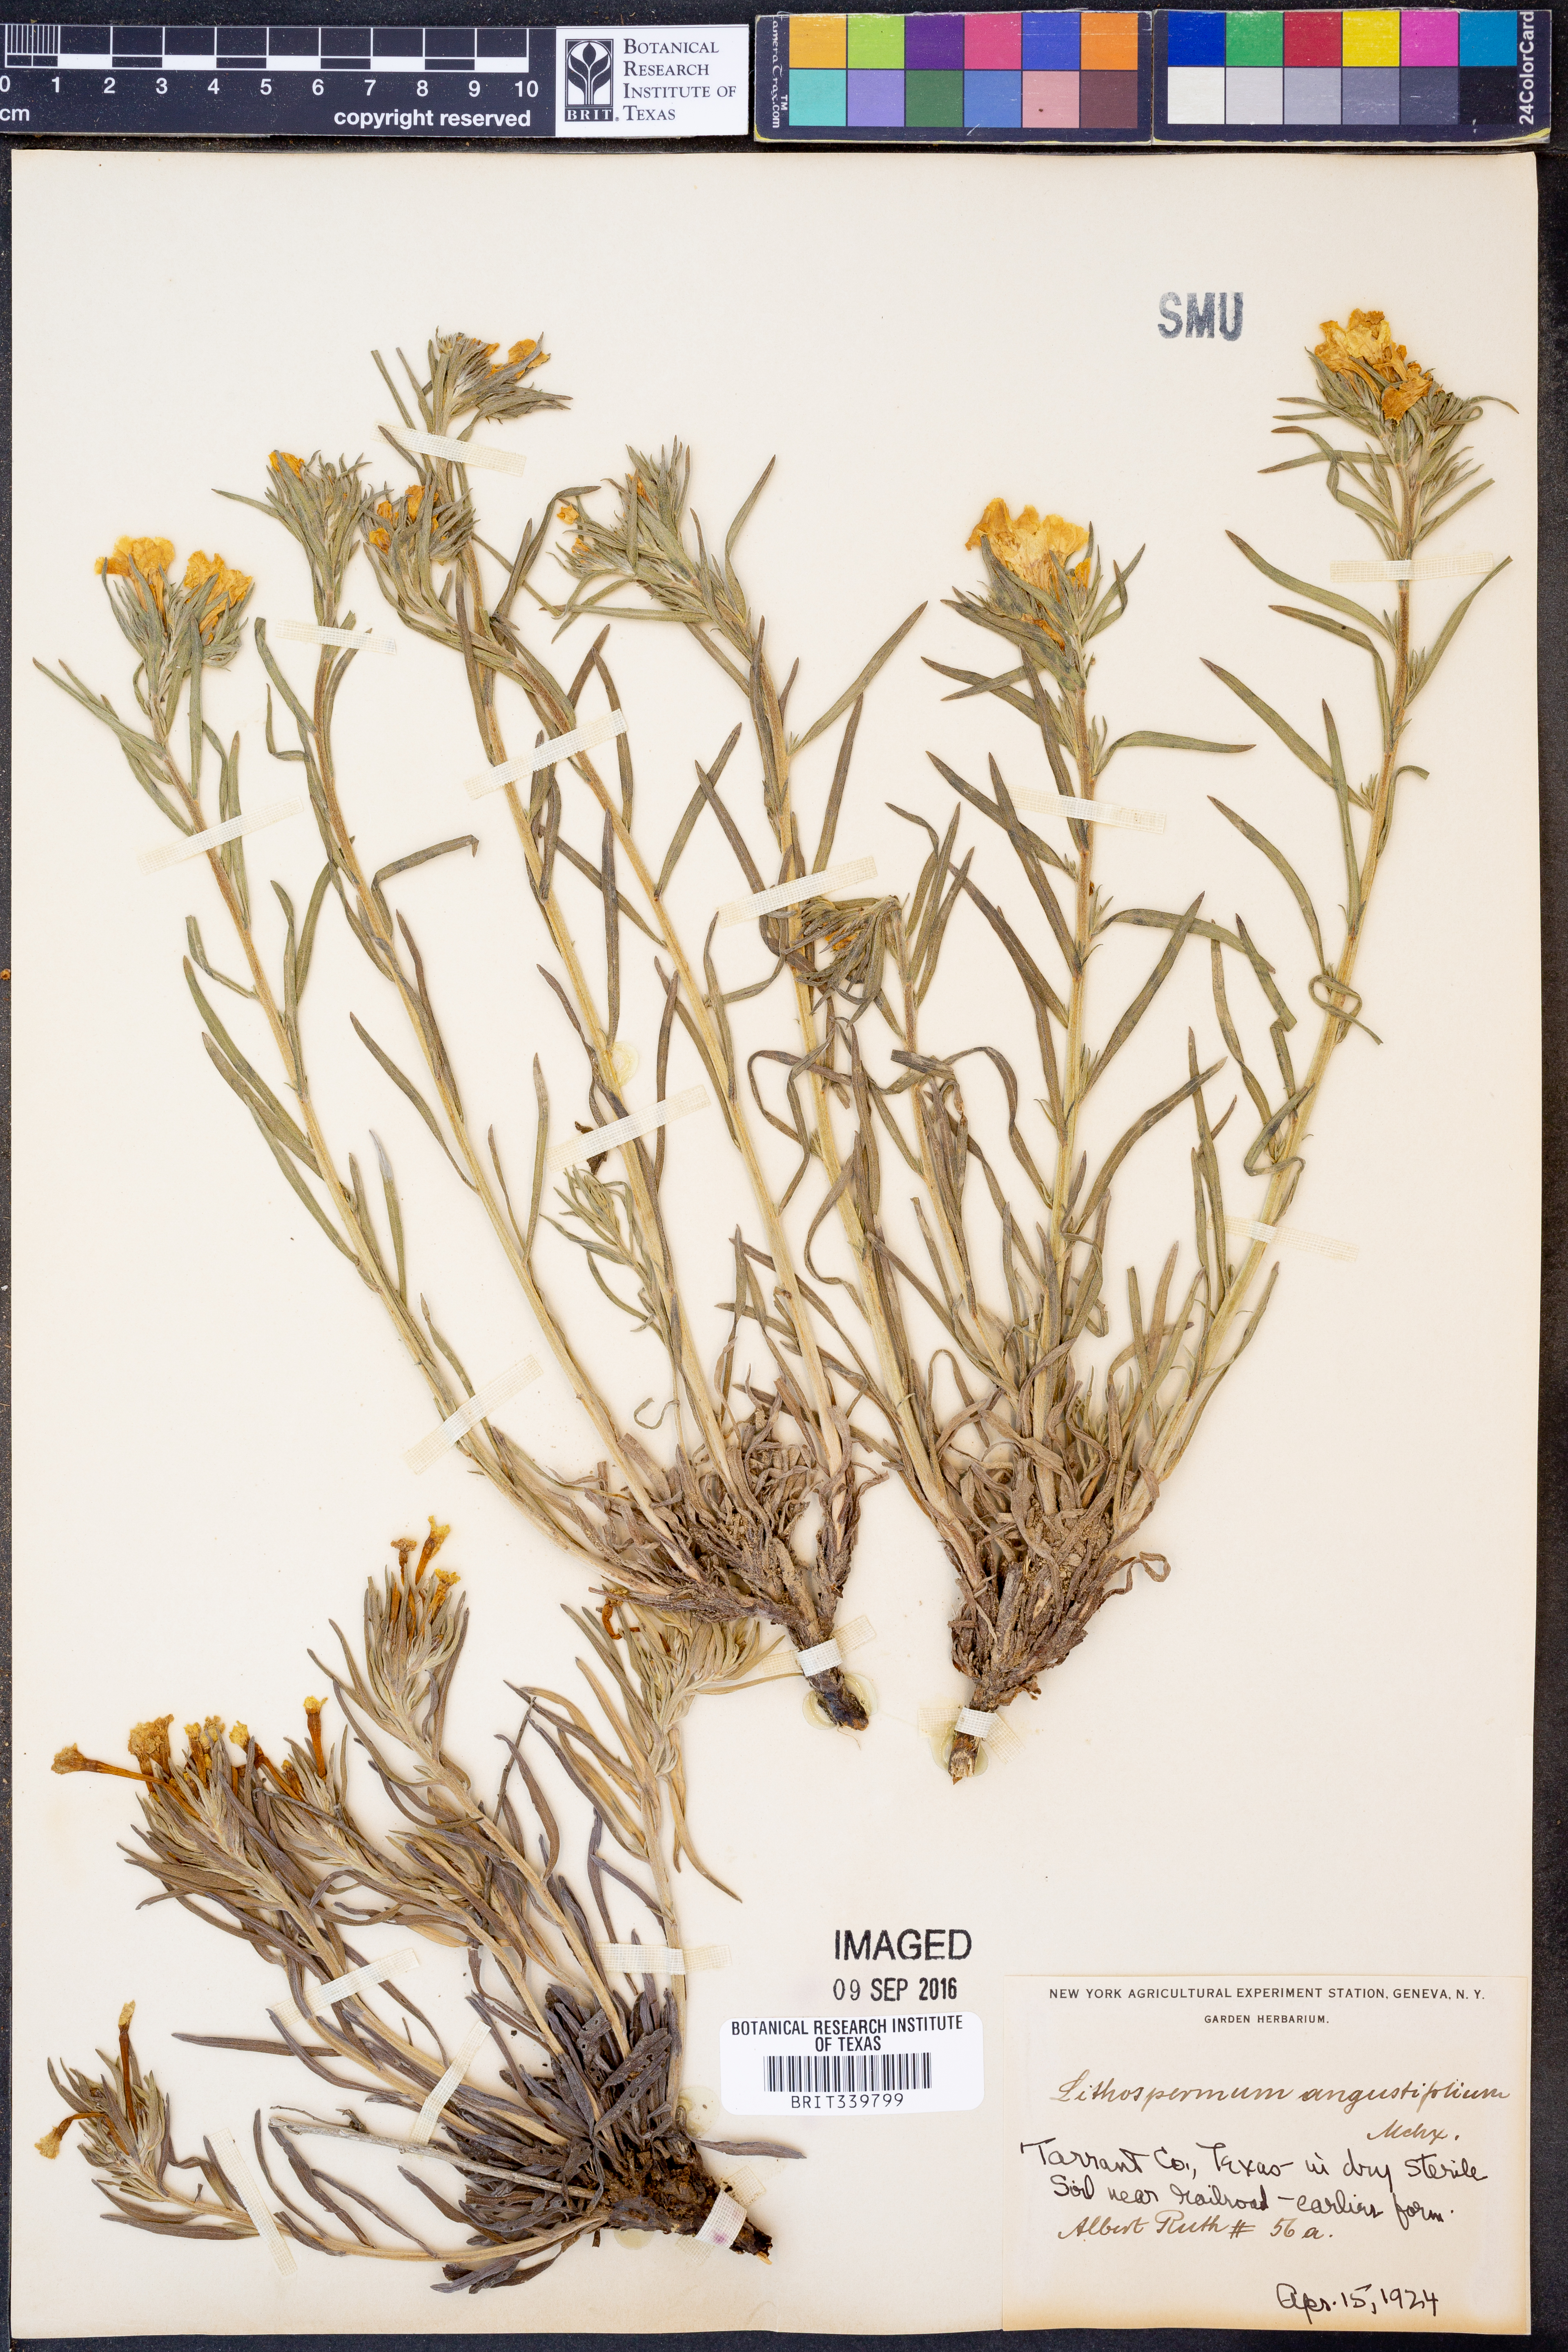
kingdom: Plantae
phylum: Tracheophyta
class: Magnoliopsida
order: Boraginales
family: Boraginaceae
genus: Lithospermum
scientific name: Lithospermum incisum
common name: Fringed gromwell
